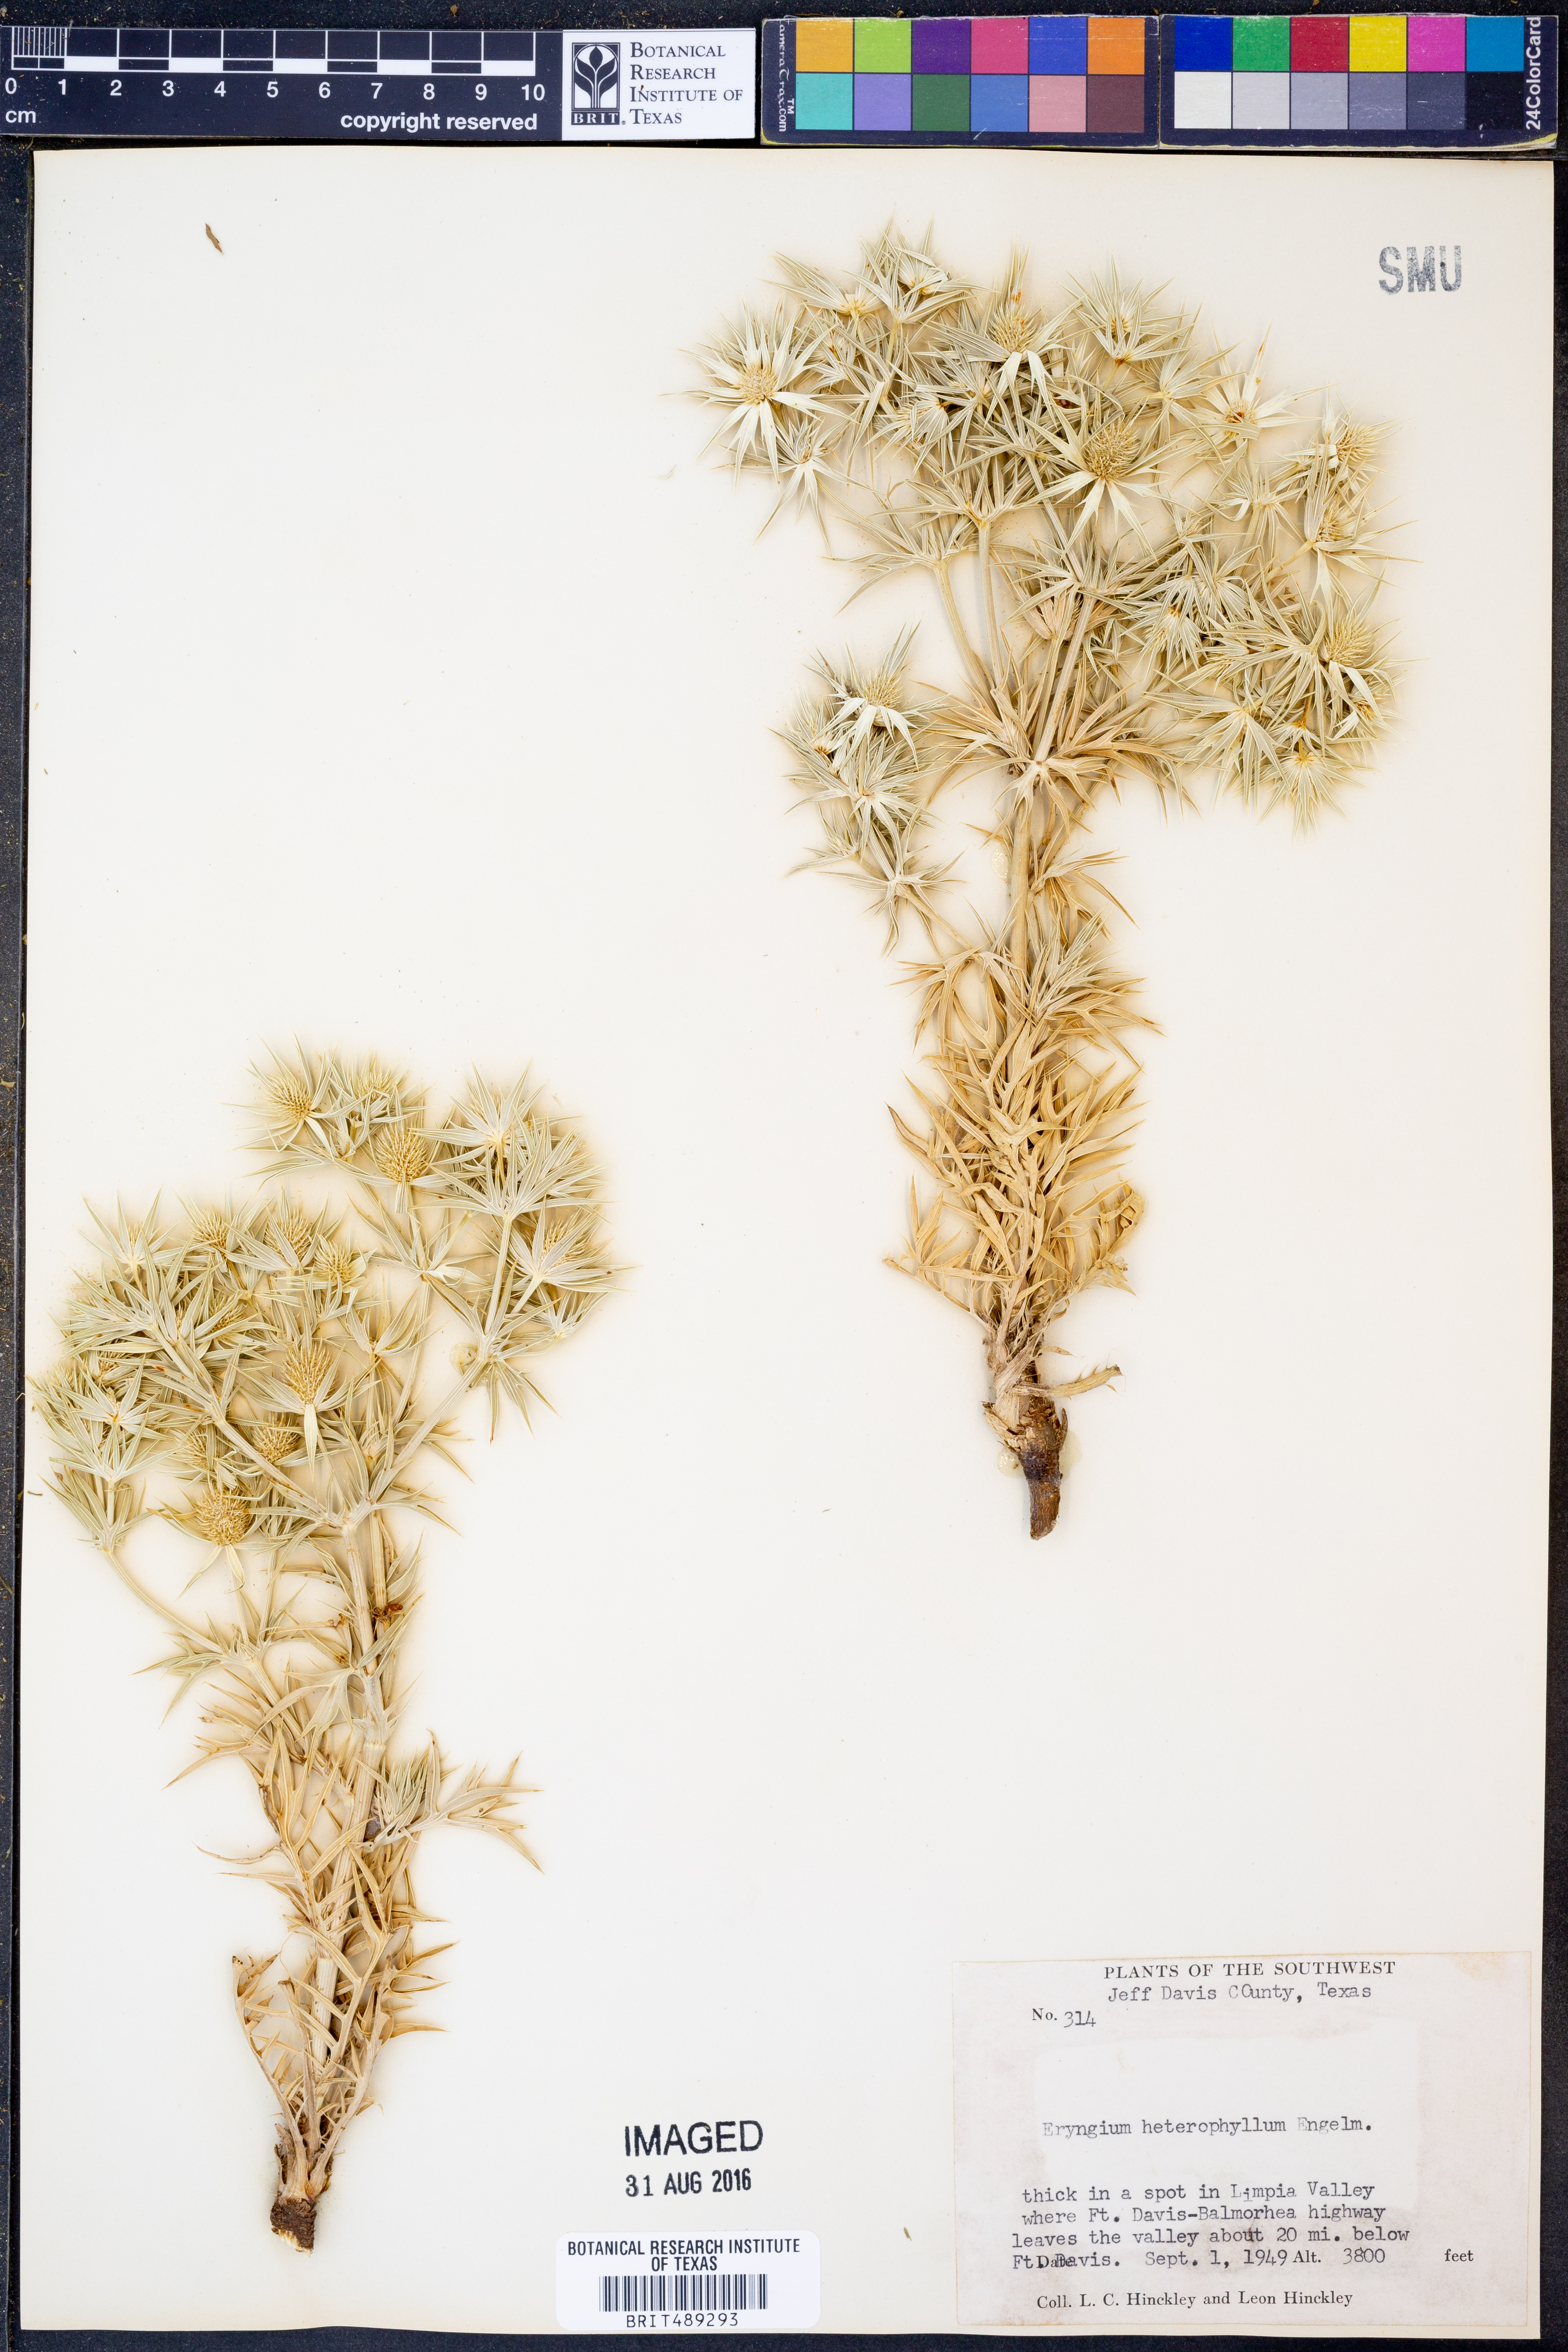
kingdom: Plantae
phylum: Tracheophyta
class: Magnoliopsida
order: Apiales
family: Apiaceae
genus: Eryngium
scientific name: Eryngium heterophyllum
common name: Mexican thistle
